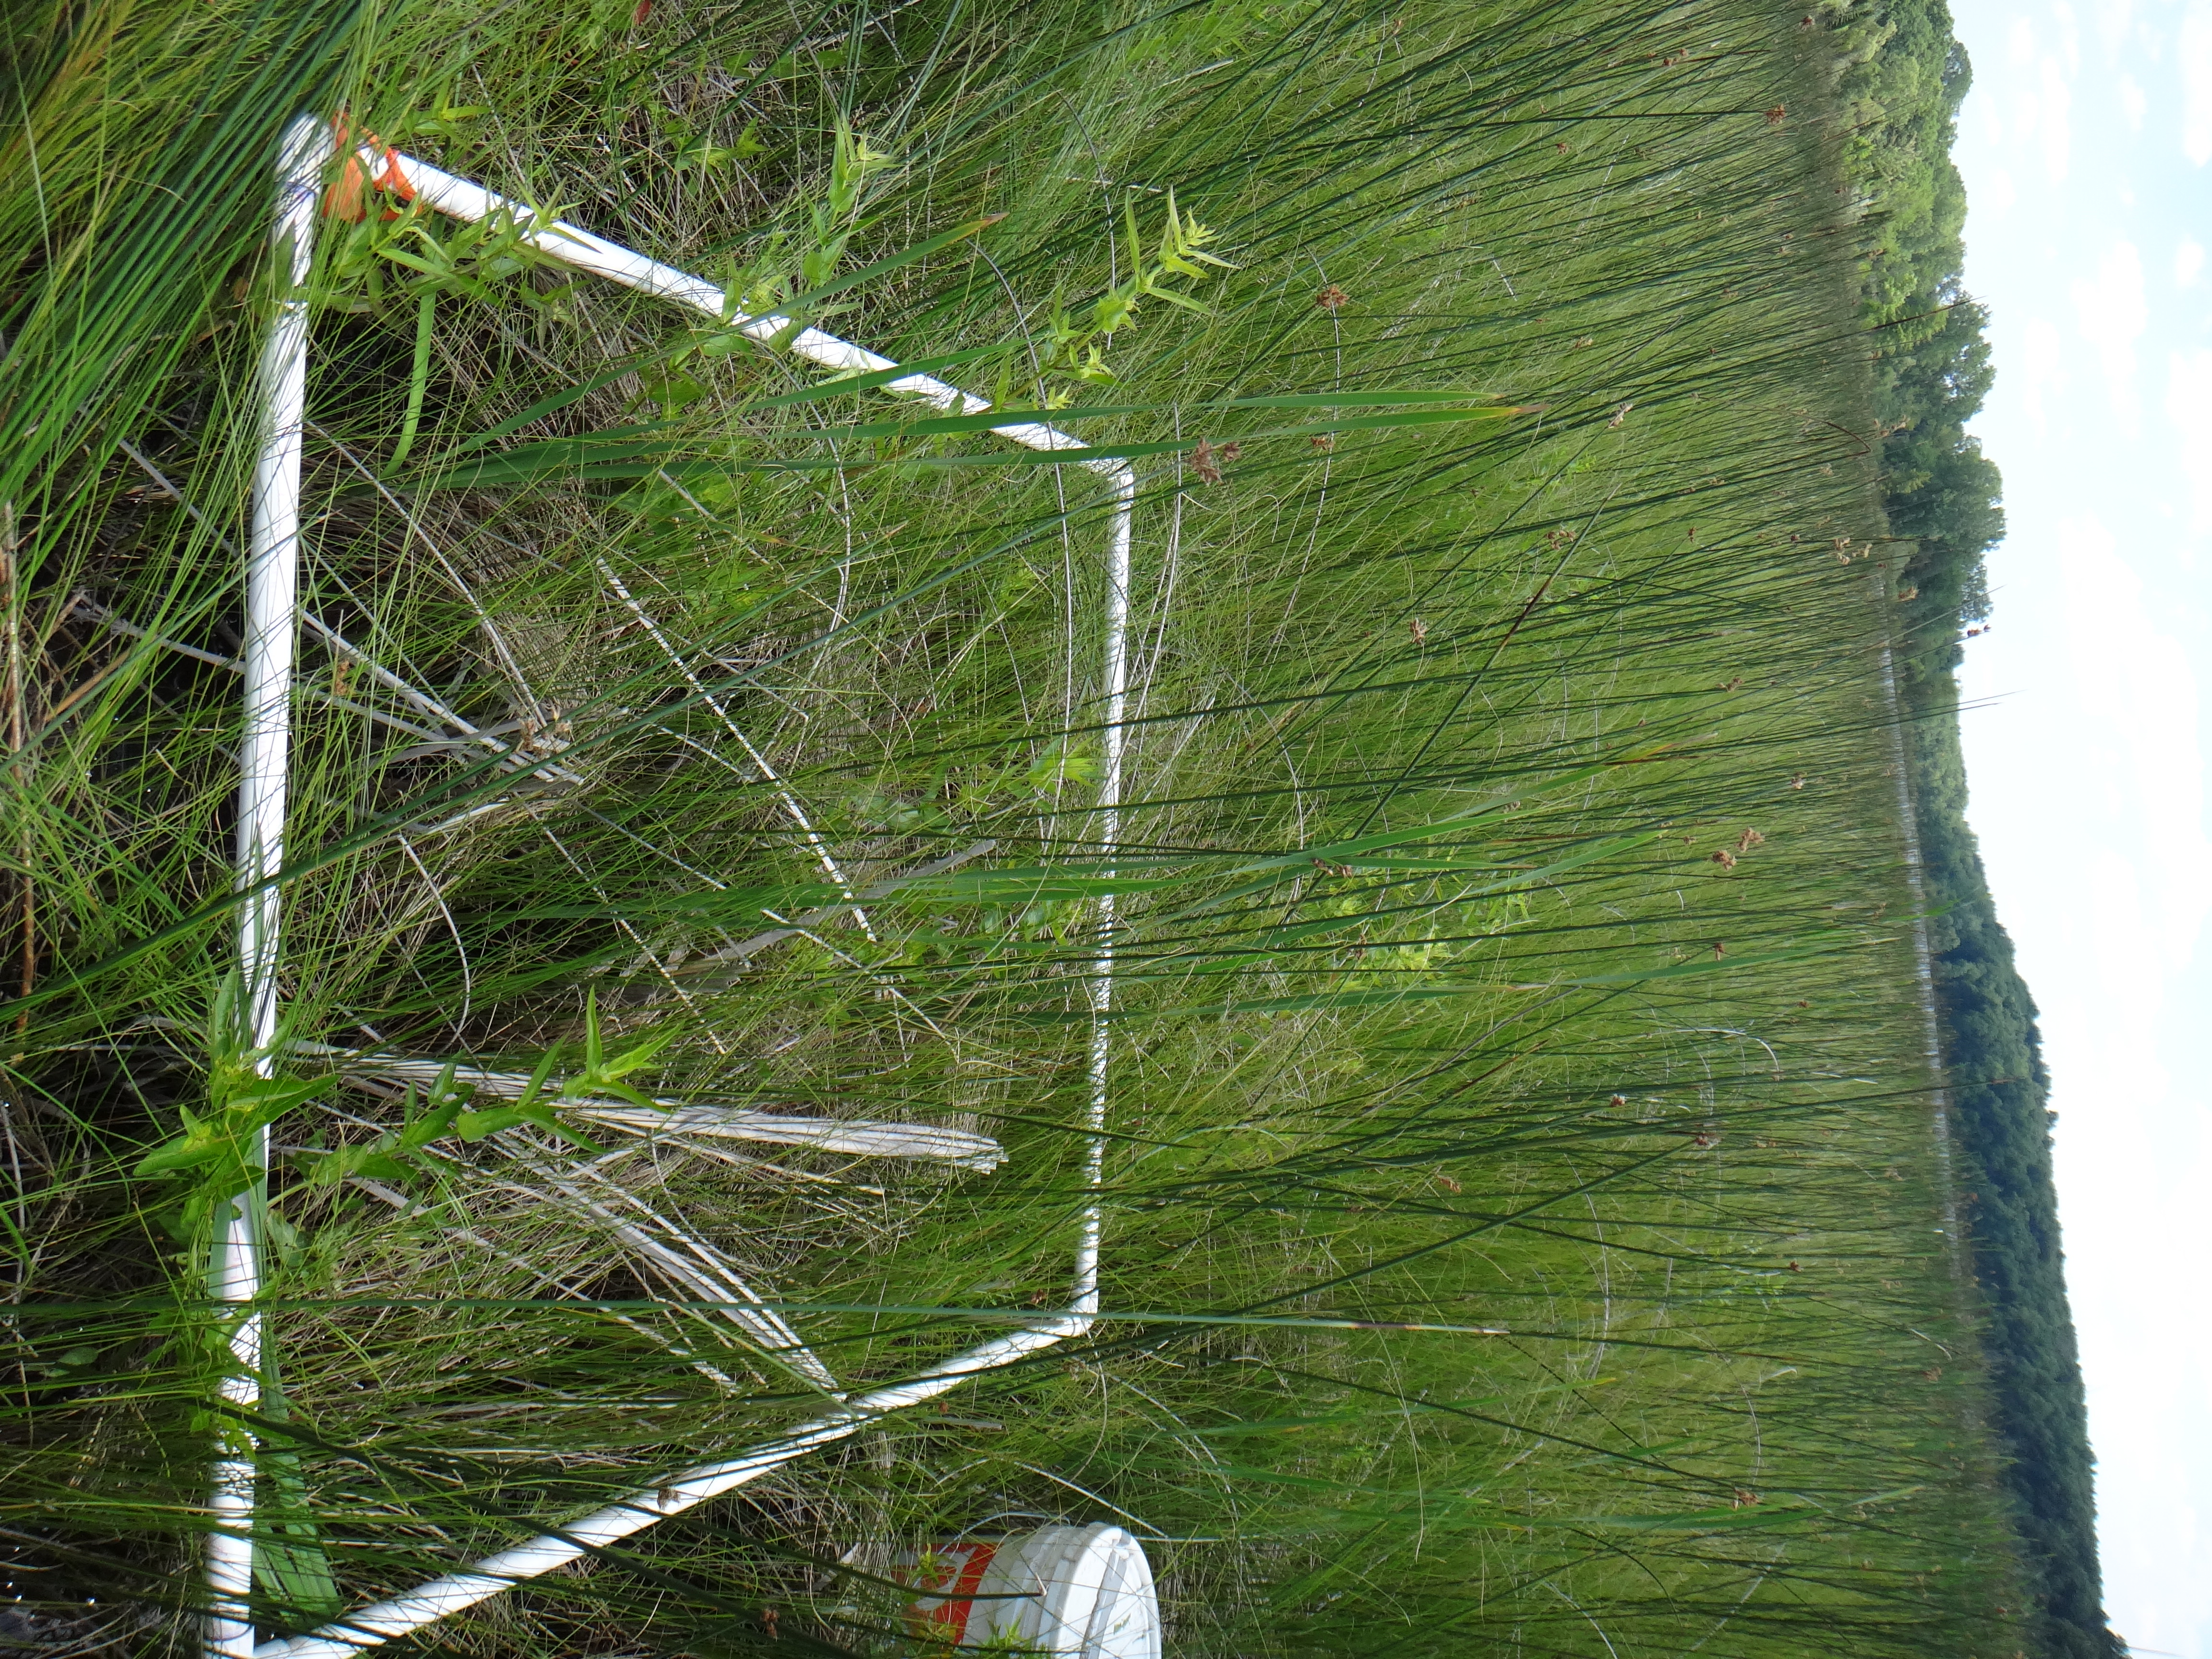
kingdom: Plantae
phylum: Tracheophyta
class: Magnoliopsida
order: Myrtales
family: Lythraceae
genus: Lythrum
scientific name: Lythrum salicaria
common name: Purple loosestrife
